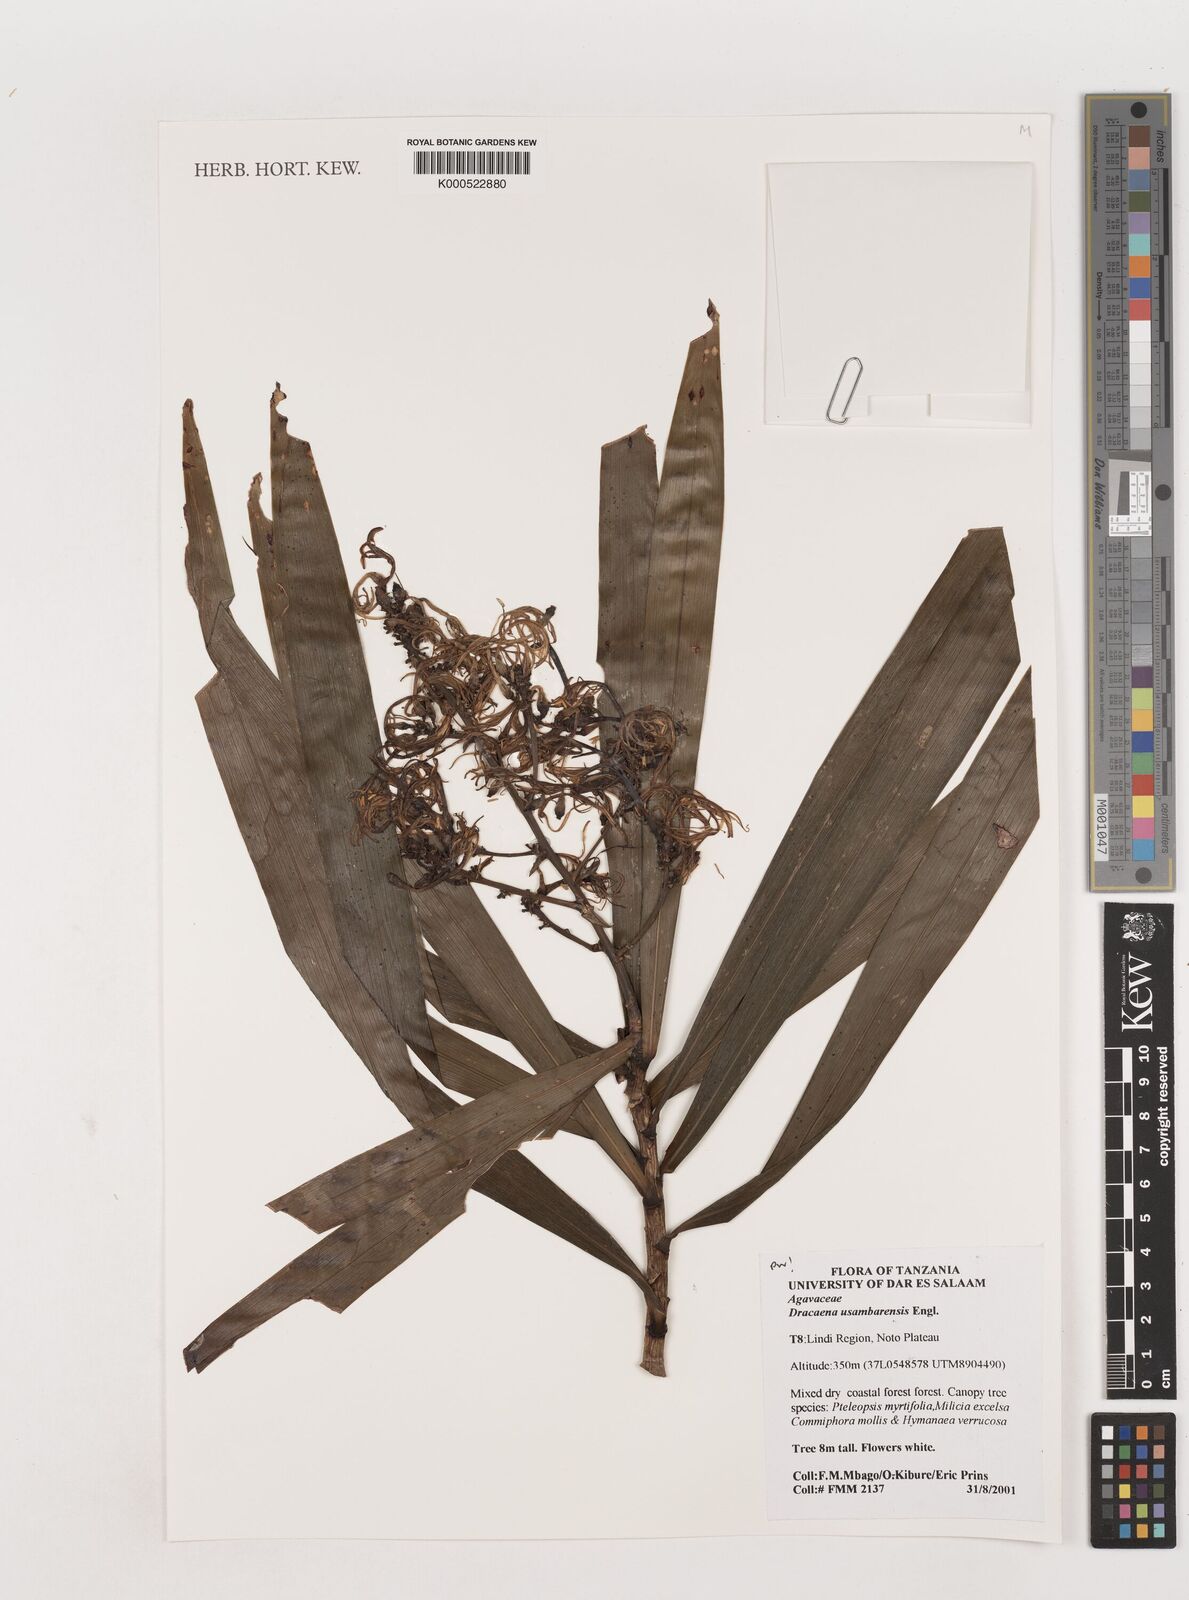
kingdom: Plantae
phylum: Tracheophyta
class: Liliopsida
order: Asparagales
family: Asparagaceae
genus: Dracaena
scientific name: Dracaena usambarensis
